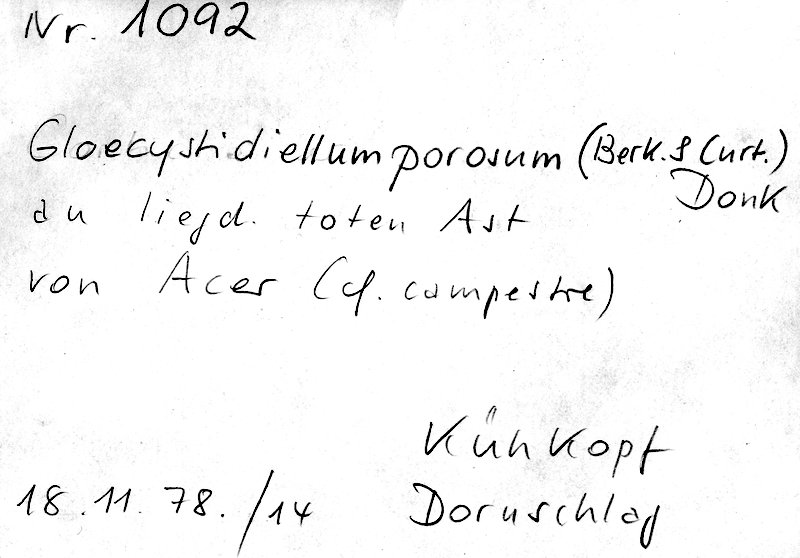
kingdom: Fungi
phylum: Basidiomycota
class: Agaricomycetes
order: Russulales
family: Stereaceae
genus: Gloeocystidiellum
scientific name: Gloeocystidiellum porosum
